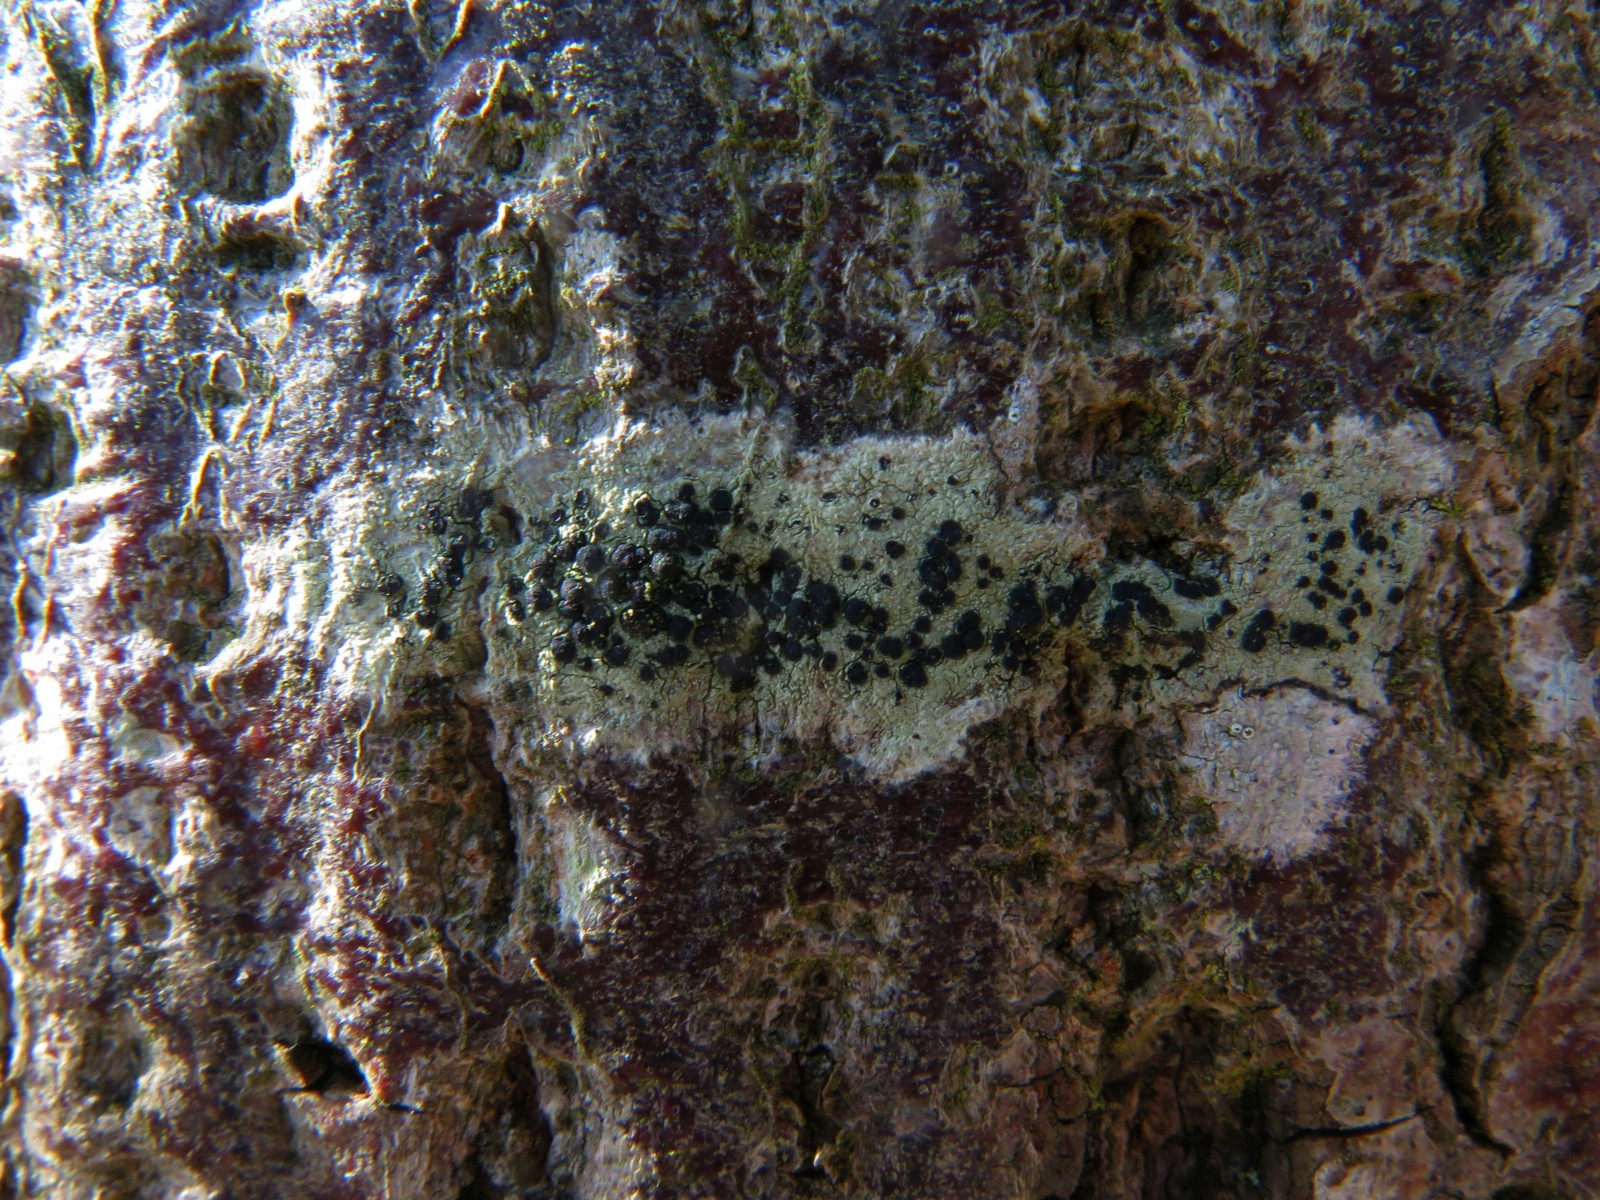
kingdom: Fungi
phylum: Ascomycota
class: Lecanoromycetes
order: Lecanorales
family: Lecanoraceae
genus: Lecidella
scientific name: Lecidella elaeochroma
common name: grågrøn skivelav
